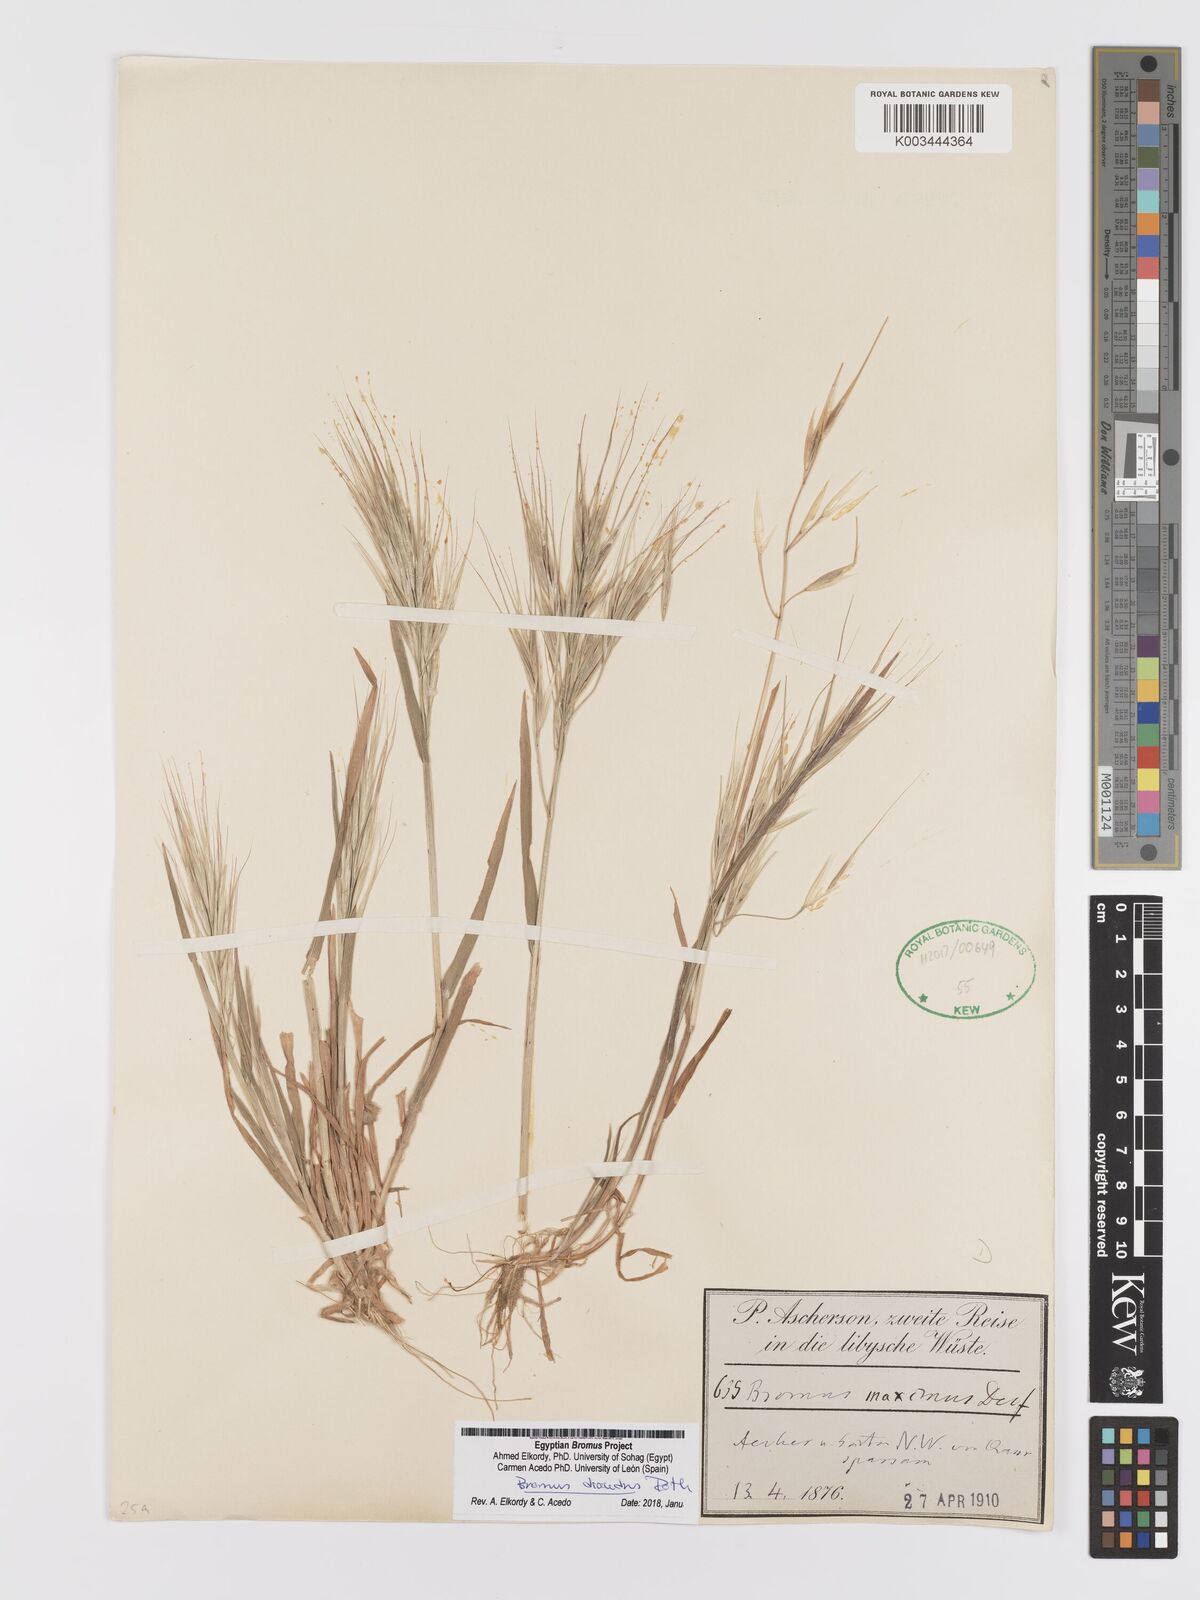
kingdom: Plantae
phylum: Tracheophyta
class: Liliopsida
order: Poales
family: Poaceae
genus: Bromus
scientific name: Bromus diandrus
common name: Ripgut brome
